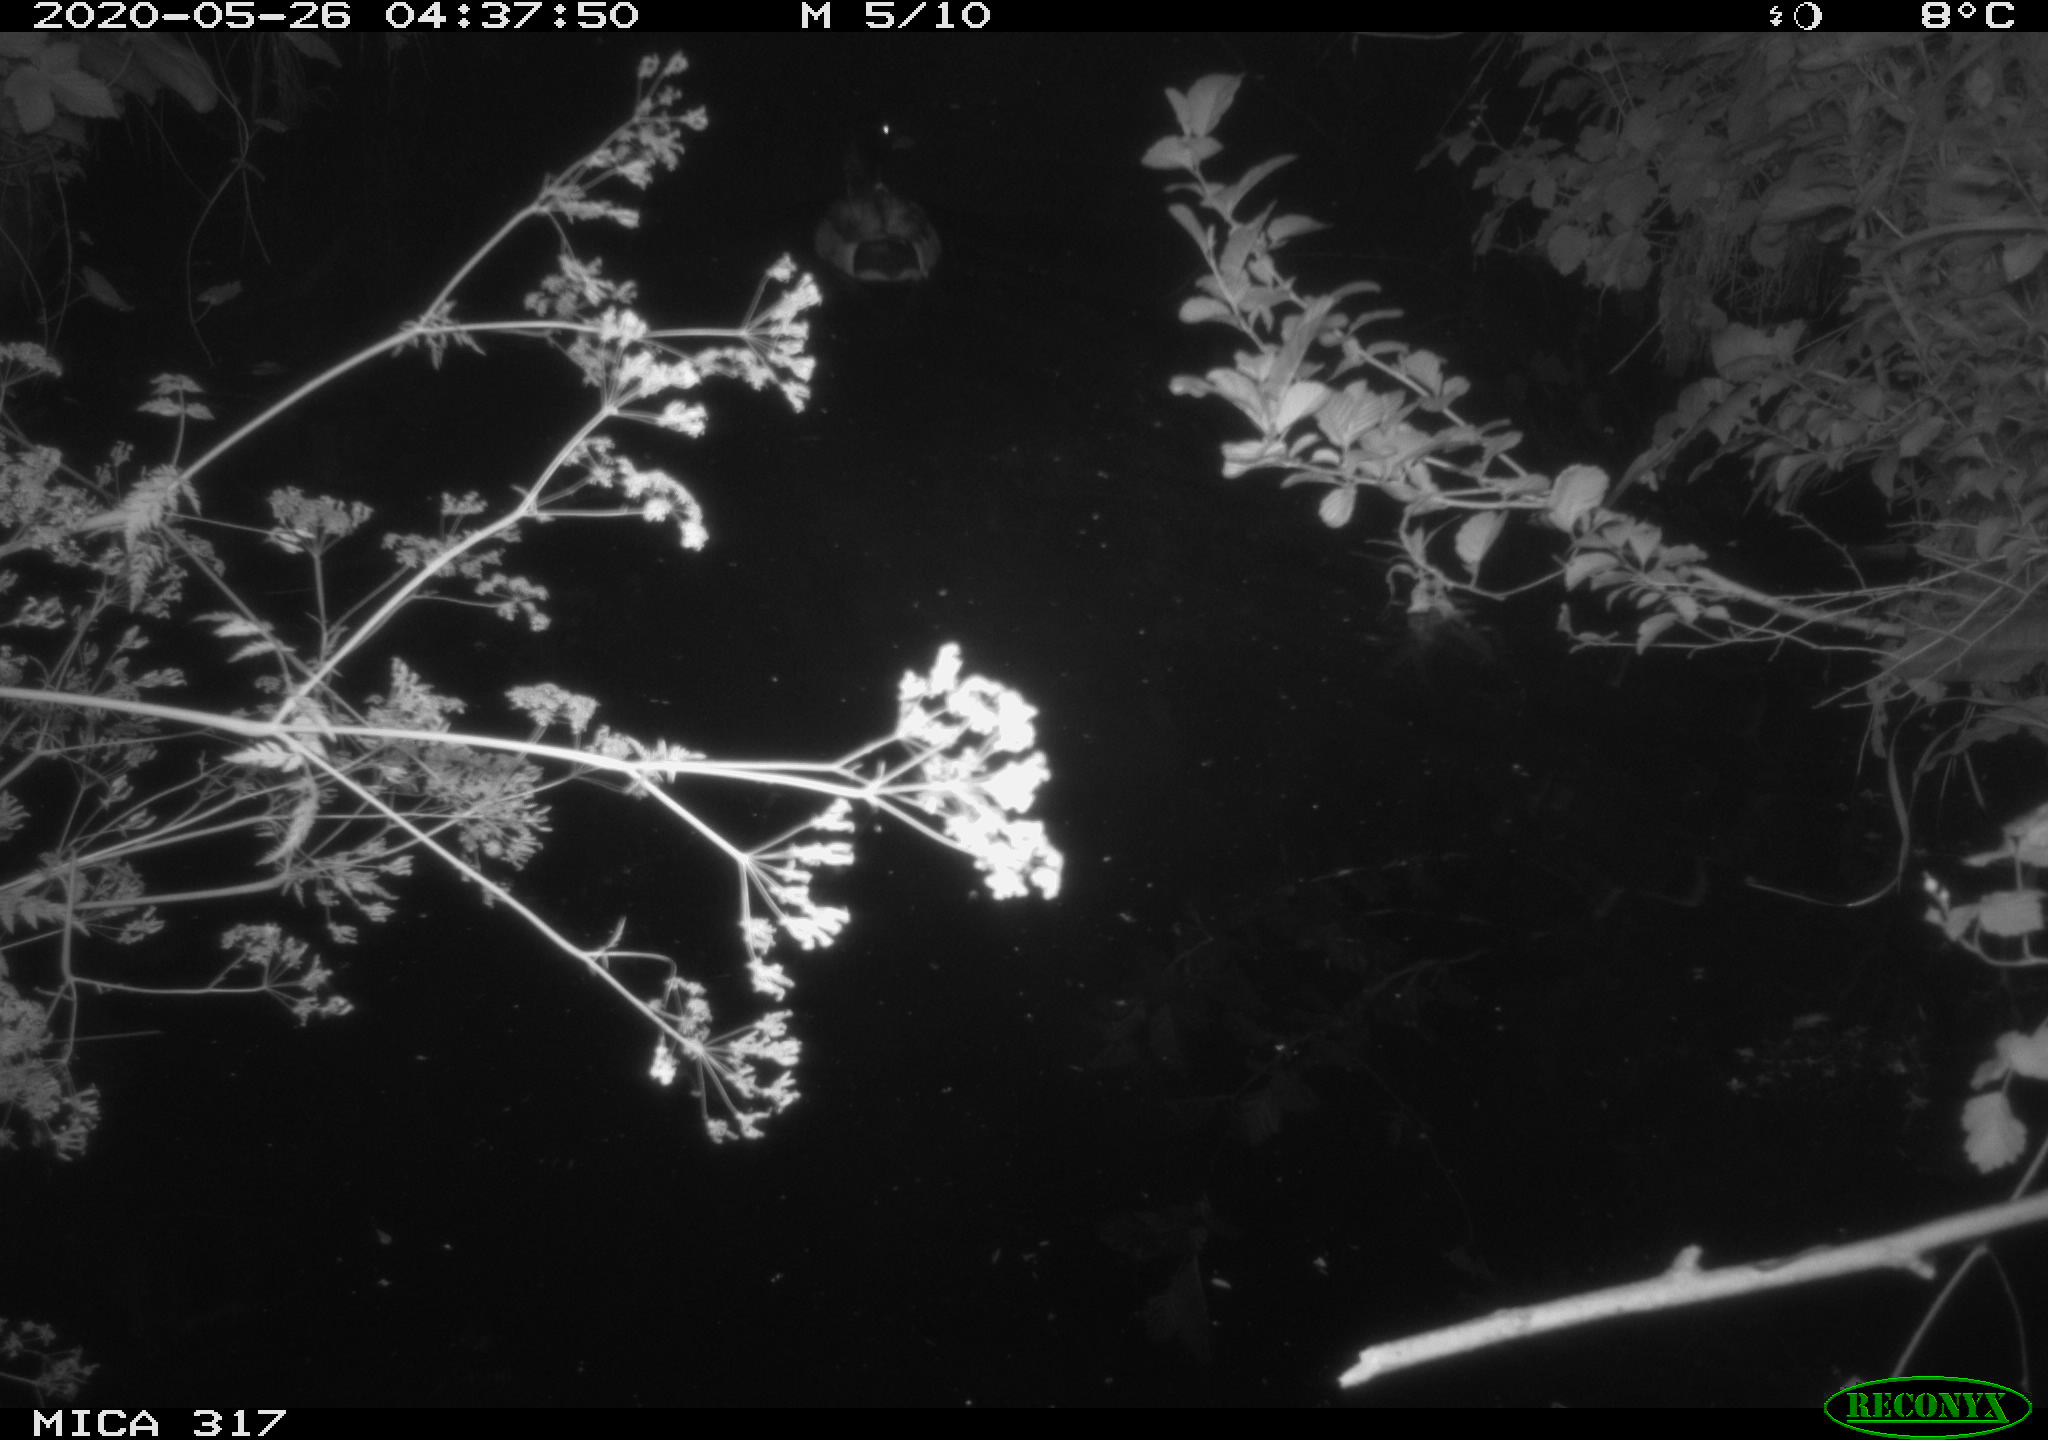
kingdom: Animalia
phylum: Chordata
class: Aves
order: Anseriformes
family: Anatidae
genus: Anas
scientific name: Anas platyrhynchos
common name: Mallard
